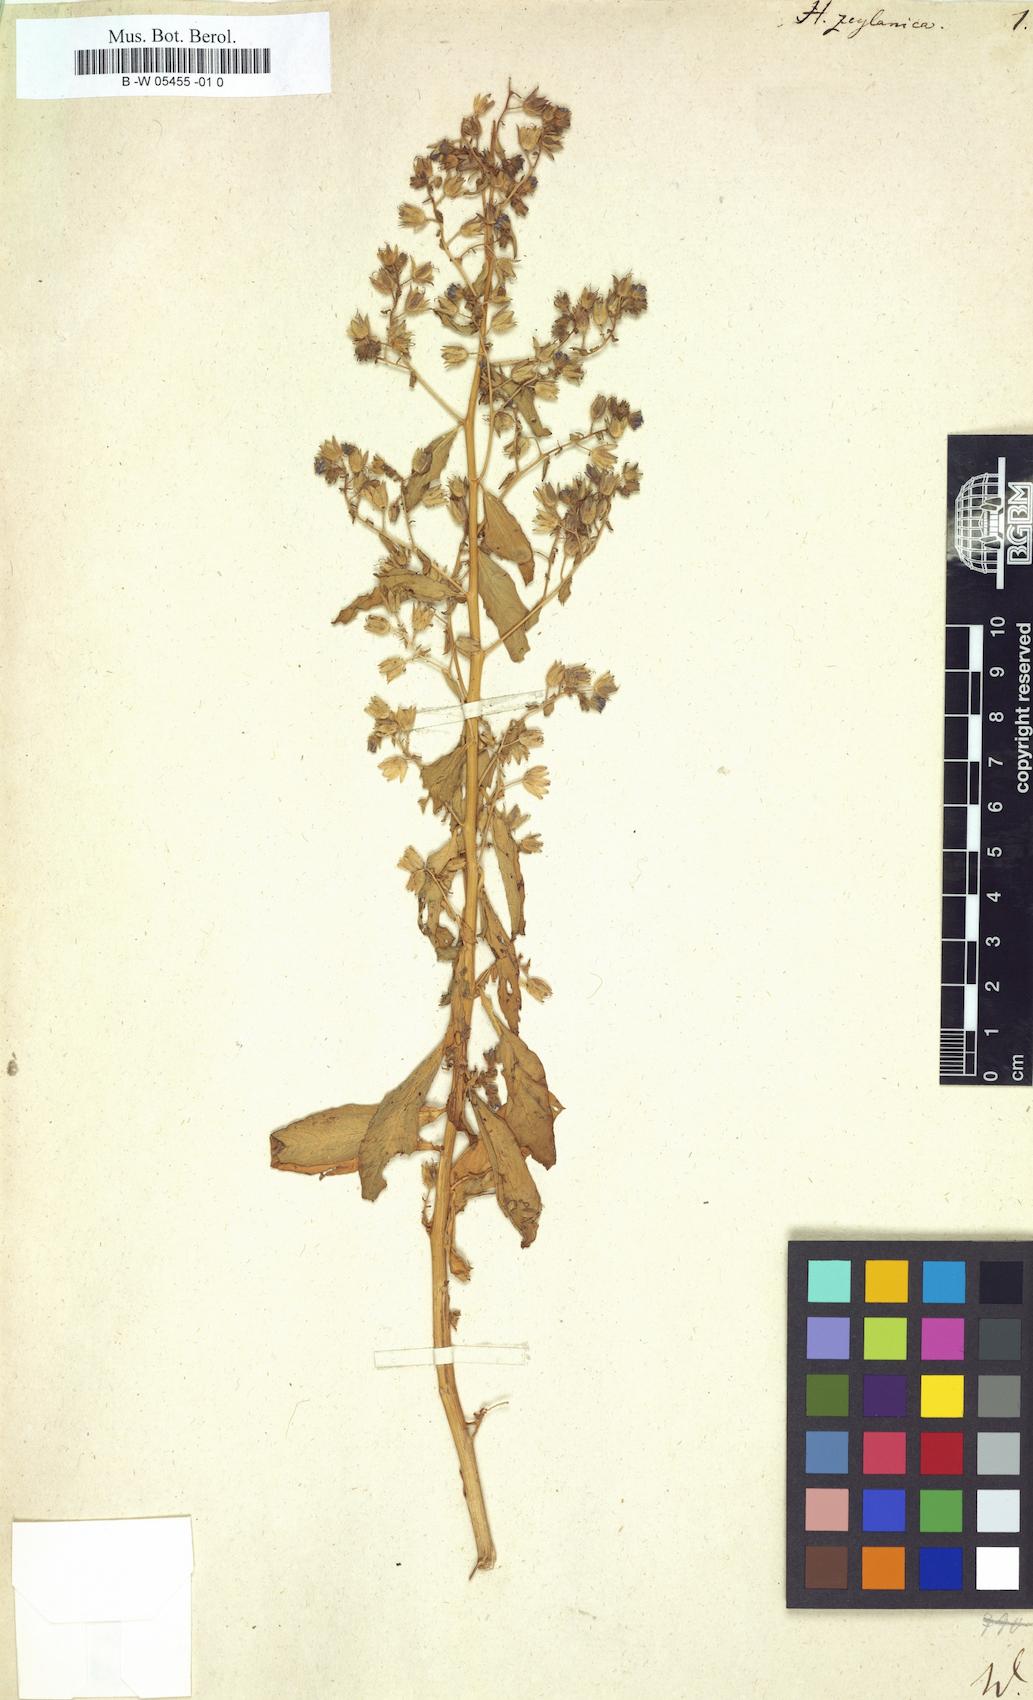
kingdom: Plantae
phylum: Tracheophyta
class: Magnoliopsida
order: Solanales
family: Hydroleaceae
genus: Hydrolea
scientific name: Hydrolea zeylanica
